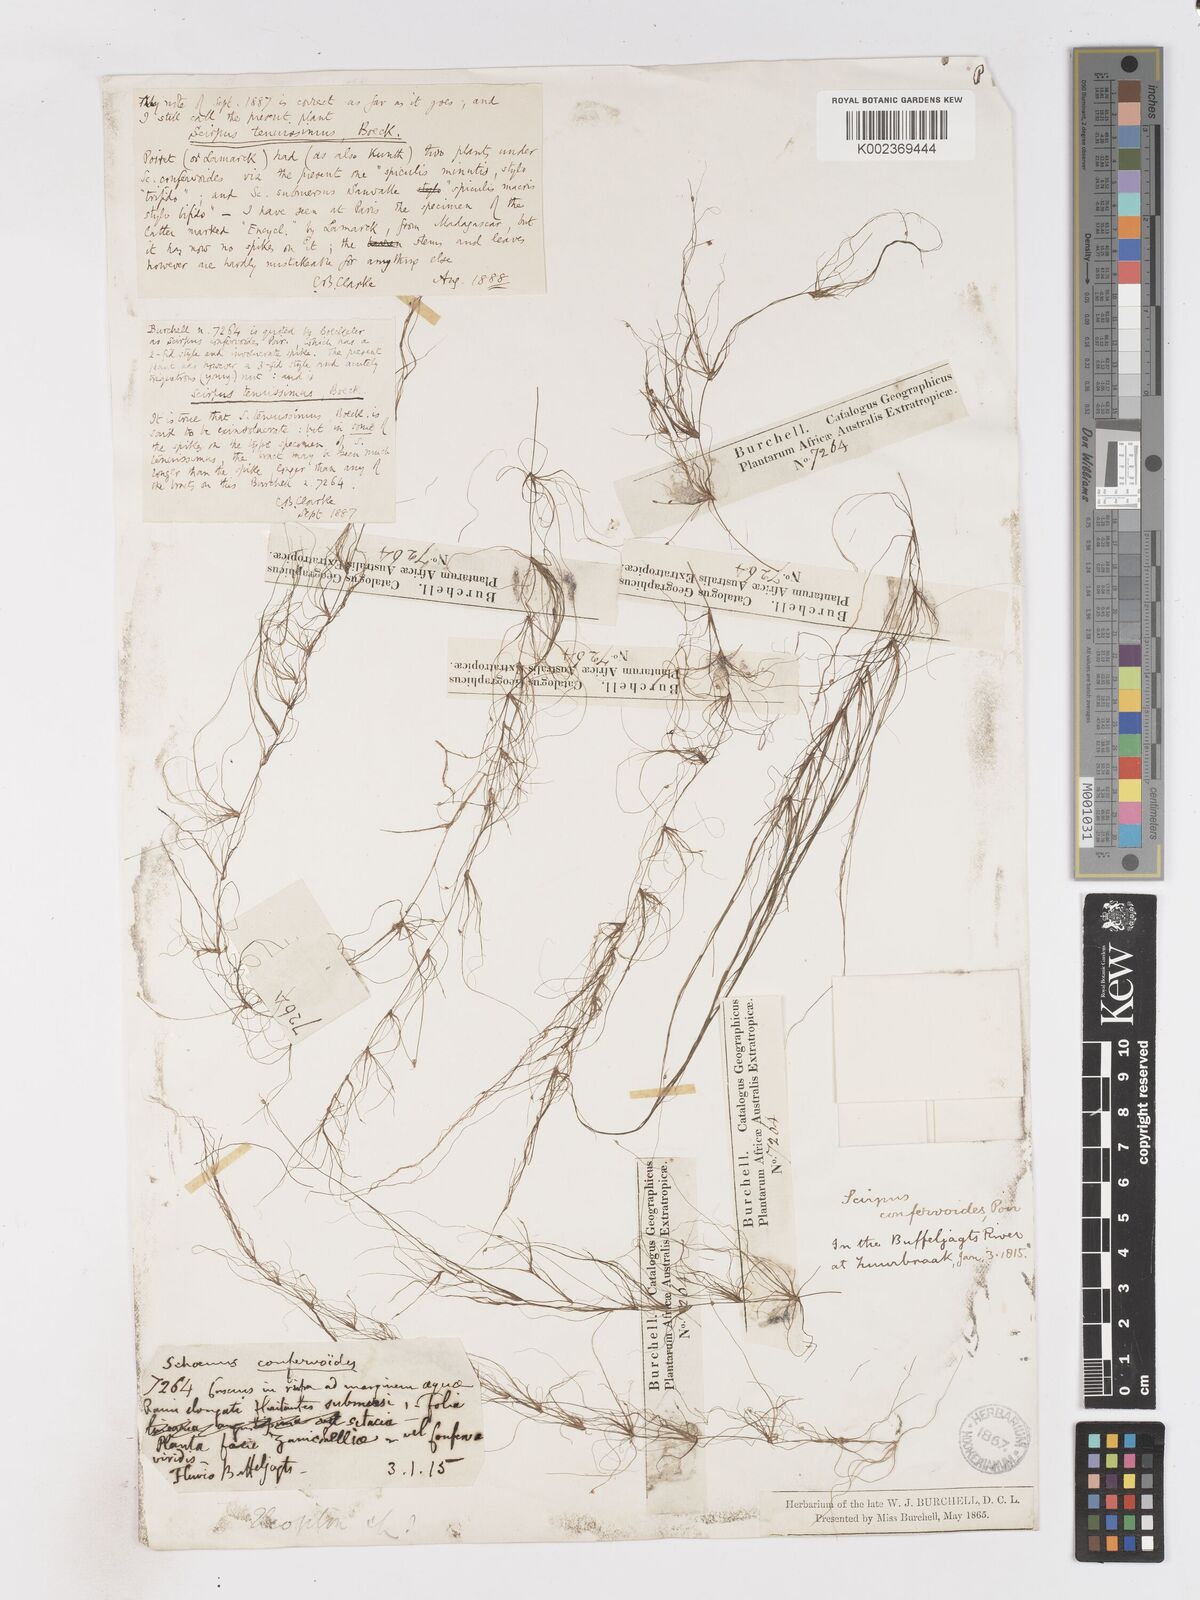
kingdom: Plantae
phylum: Tracheophyta
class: Liliopsida
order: Poales
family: Cyperaceae
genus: Isolepis
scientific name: Isolepis tenuissima
